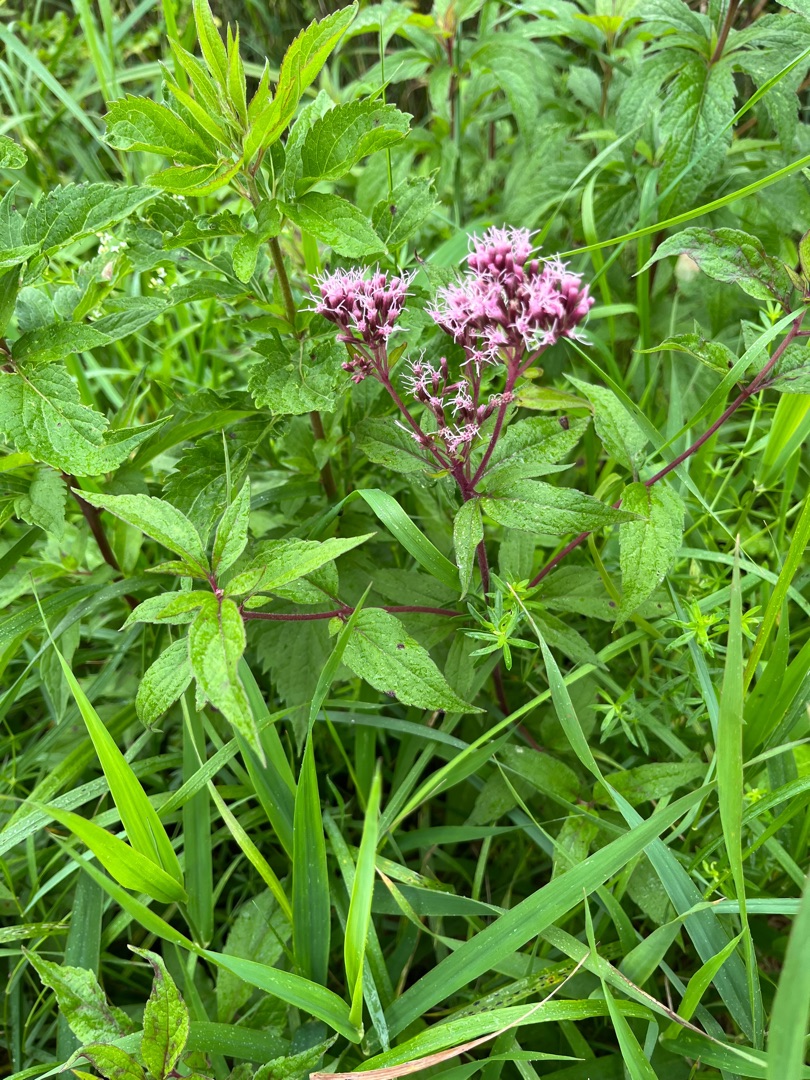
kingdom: Plantae
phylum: Tracheophyta
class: Magnoliopsida
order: Asterales
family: Asteraceae
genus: Eupatorium
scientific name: Eupatorium cannabinum
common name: Hjortetrøst
